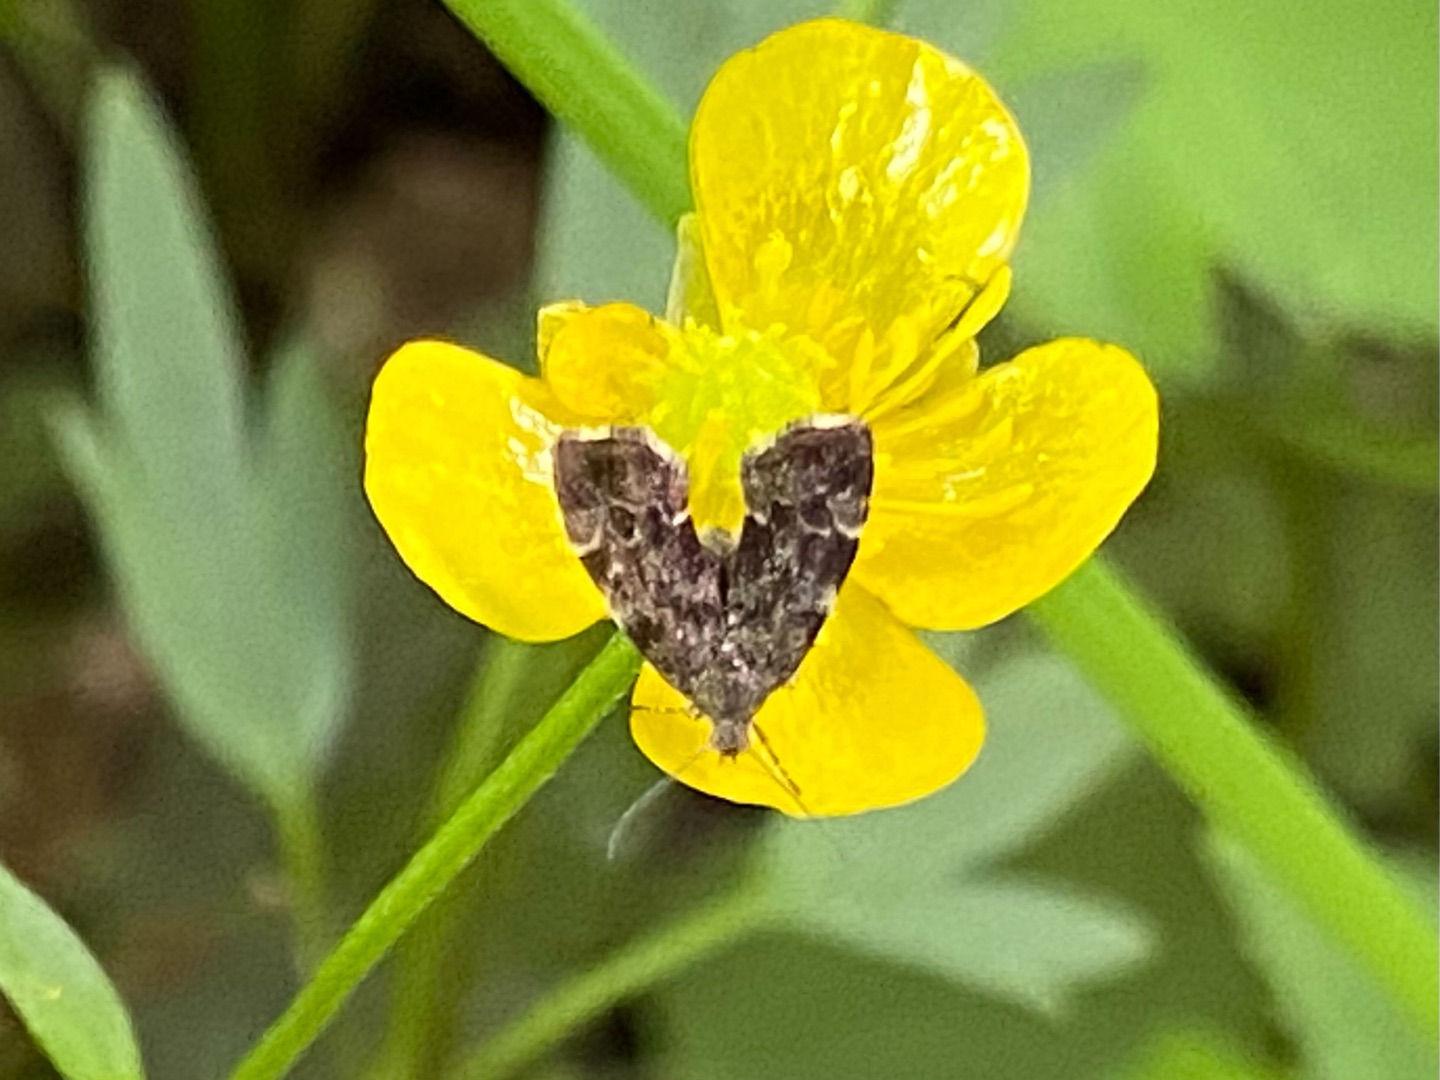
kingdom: Animalia
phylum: Arthropoda
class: Insecta
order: Lepidoptera
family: Choreutidae
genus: Anthophila
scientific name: Anthophila fabriciana
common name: Bredvinget nældevikler
